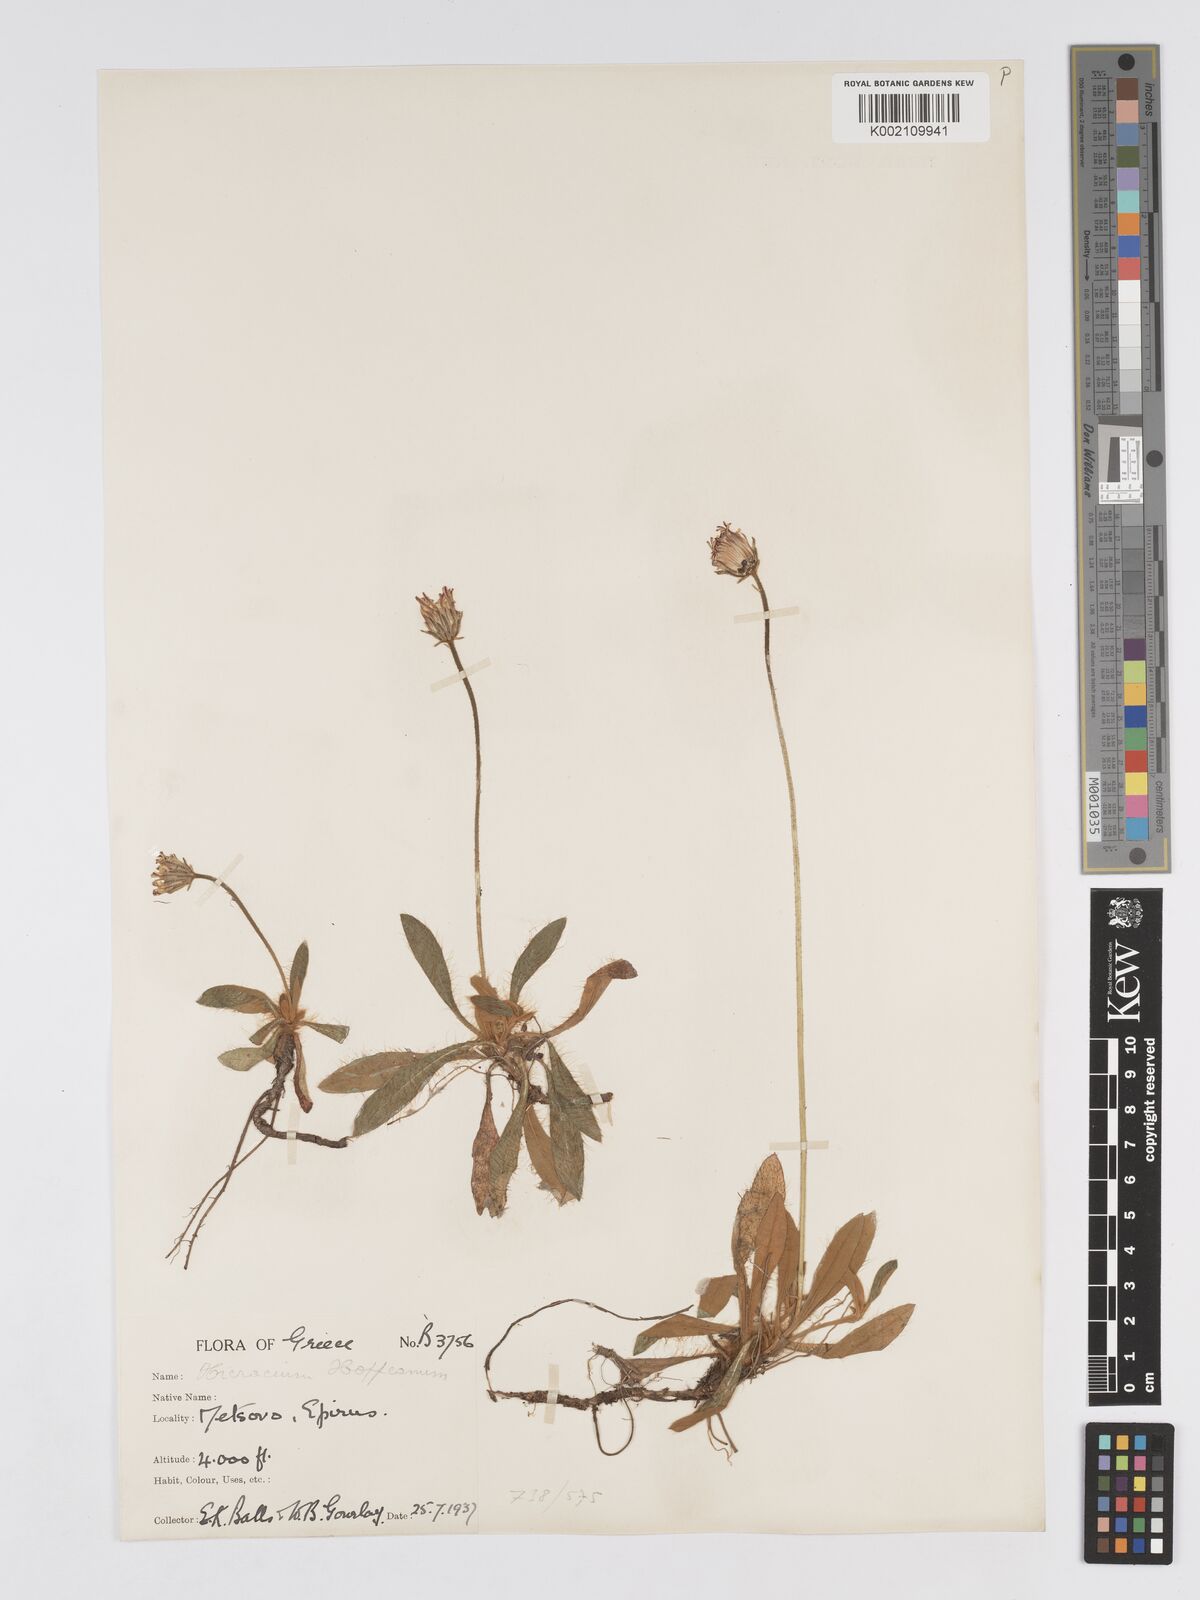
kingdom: Plantae
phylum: Tracheophyta
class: Magnoliopsida
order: Asterales
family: Asteraceae
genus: Pilosella
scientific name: Pilosella hoppeana
